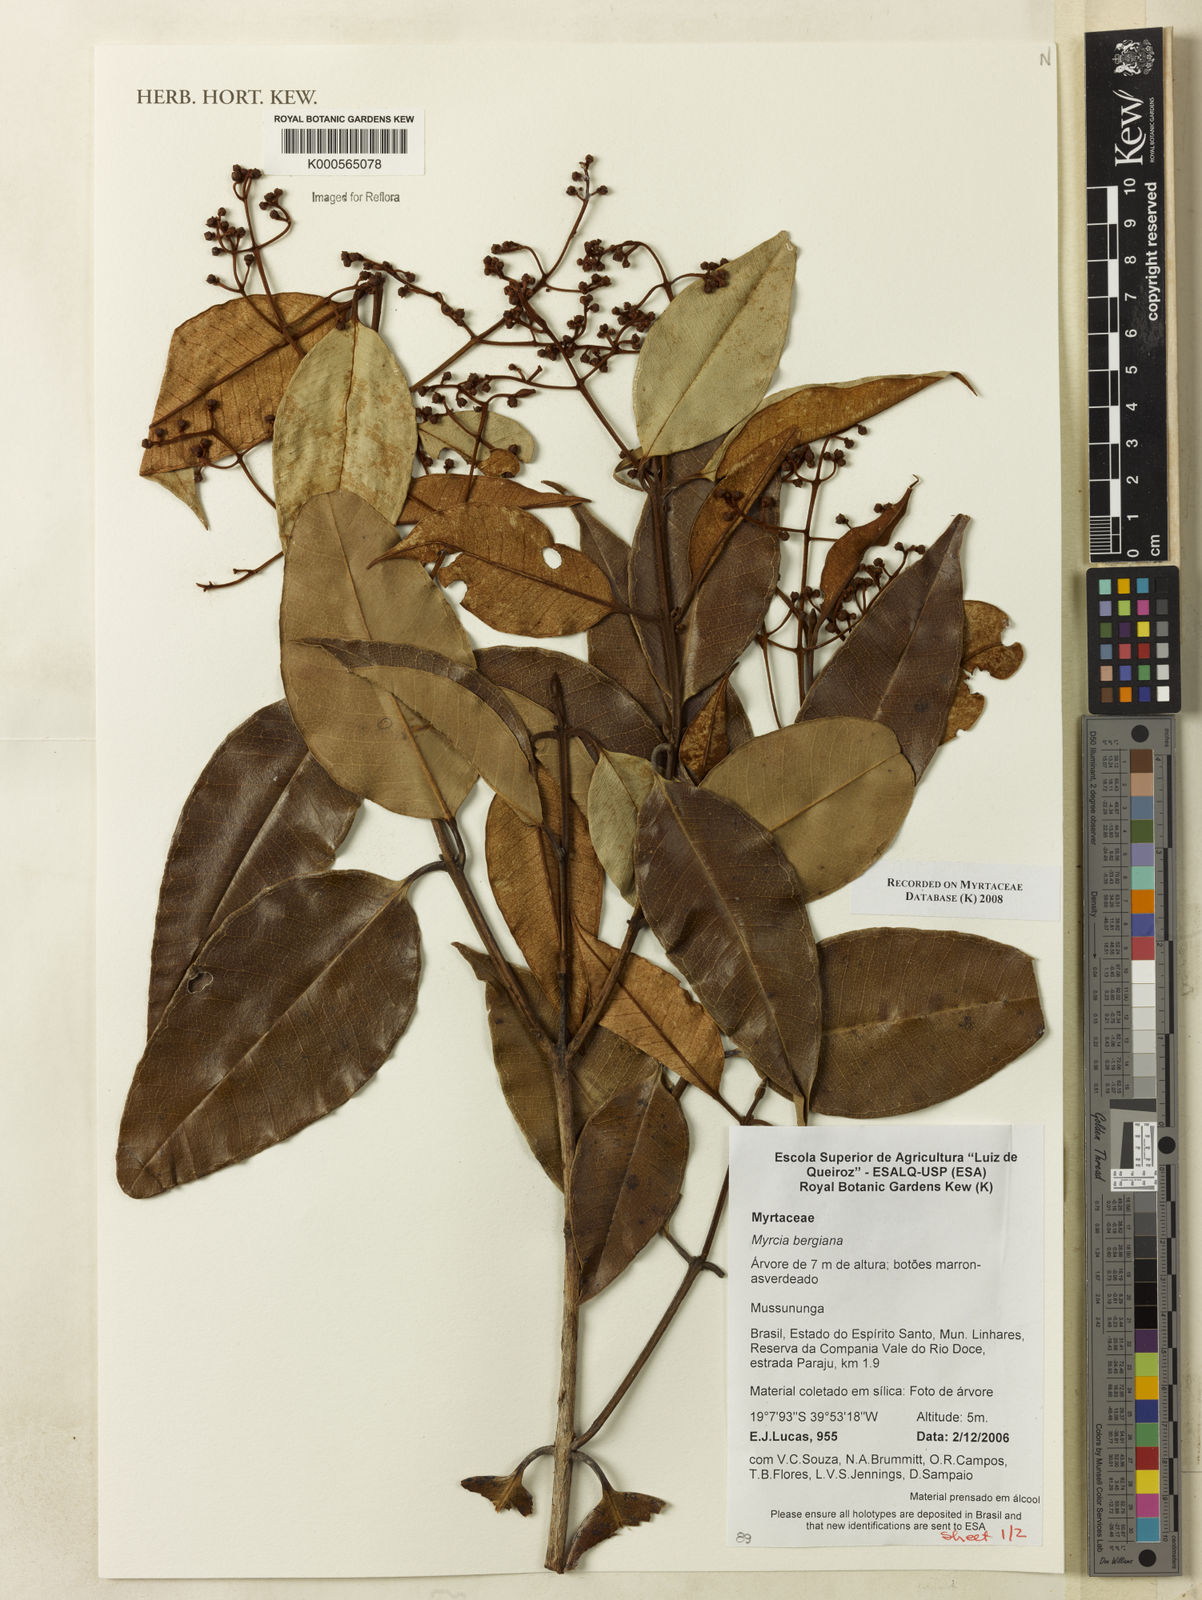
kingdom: Plantae
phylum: Tracheophyta
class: Magnoliopsida
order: Myrtales
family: Myrtaceae
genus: Myrcia
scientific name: Myrcia bergiana
